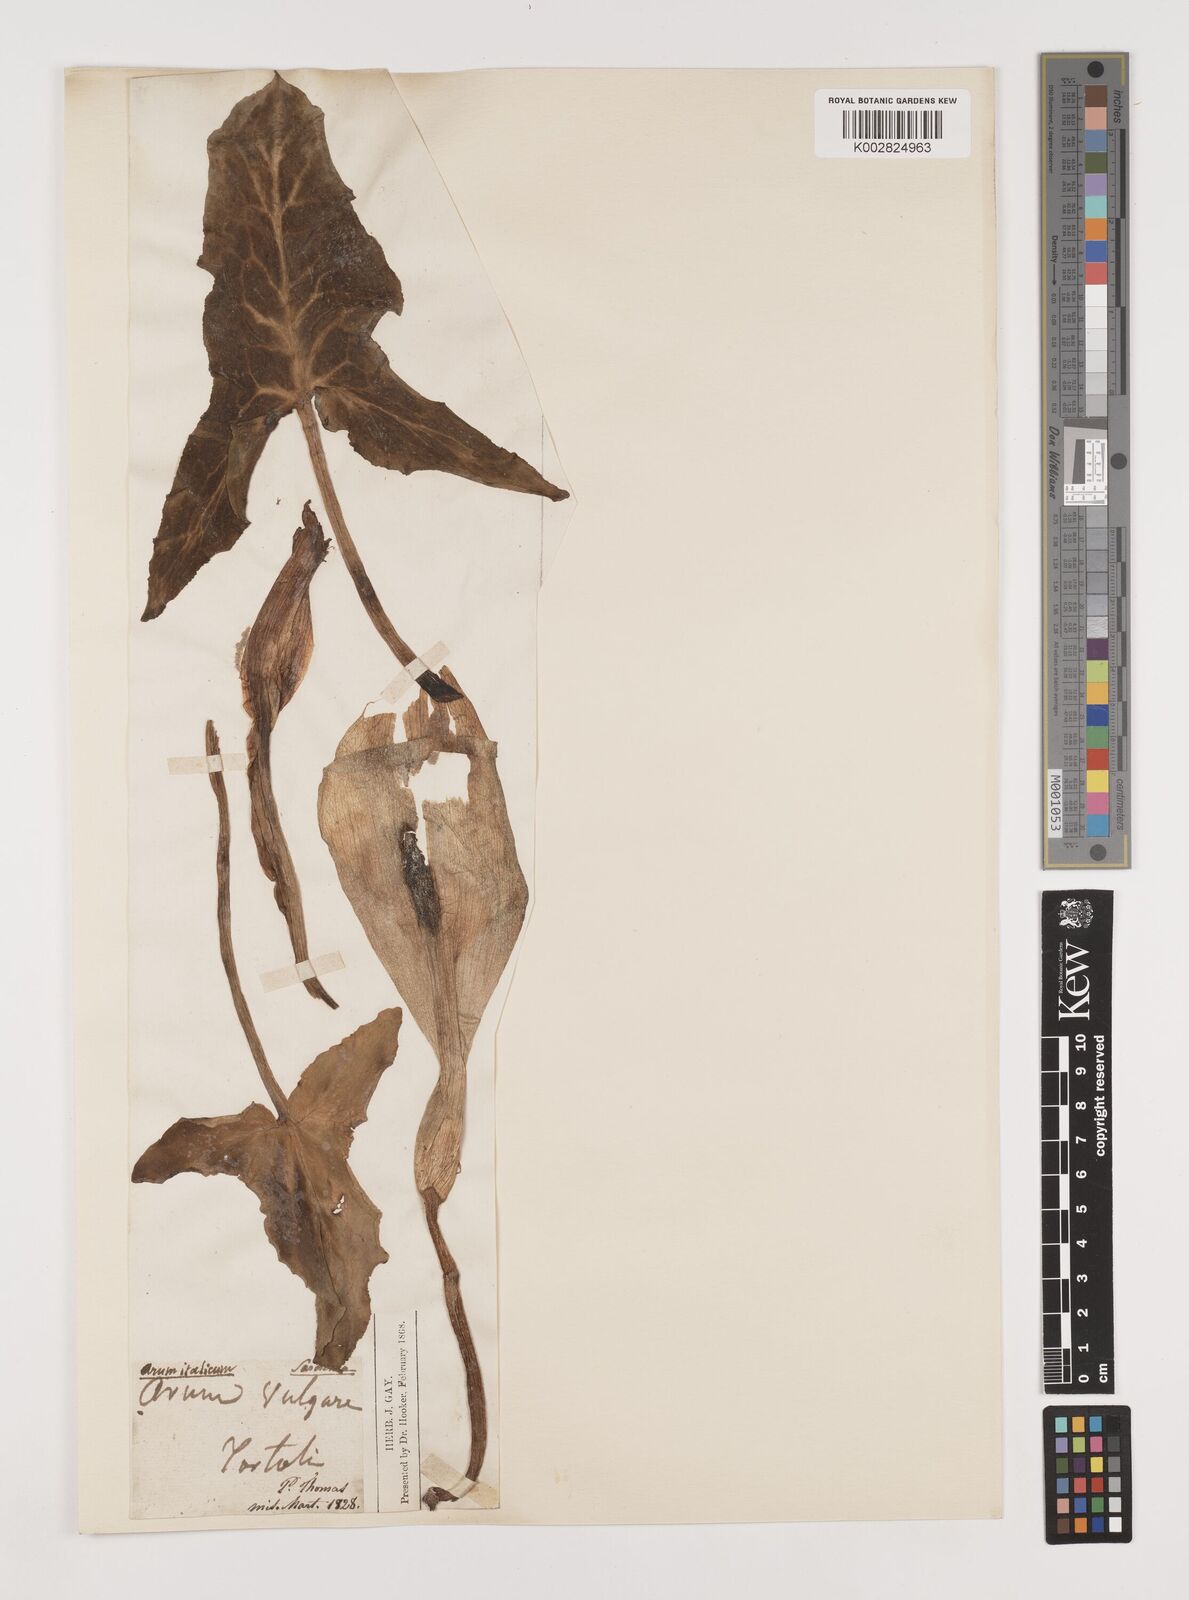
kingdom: Plantae
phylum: Tracheophyta
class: Liliopsida
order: Alismatales
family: Araceae
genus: Arum
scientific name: Arum italicum
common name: Italian lords-and-ladies
